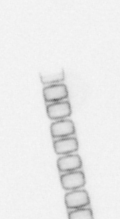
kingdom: Chromista
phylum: Ochrophyta
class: Bacillariophyceae
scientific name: Bacillariophyceae
